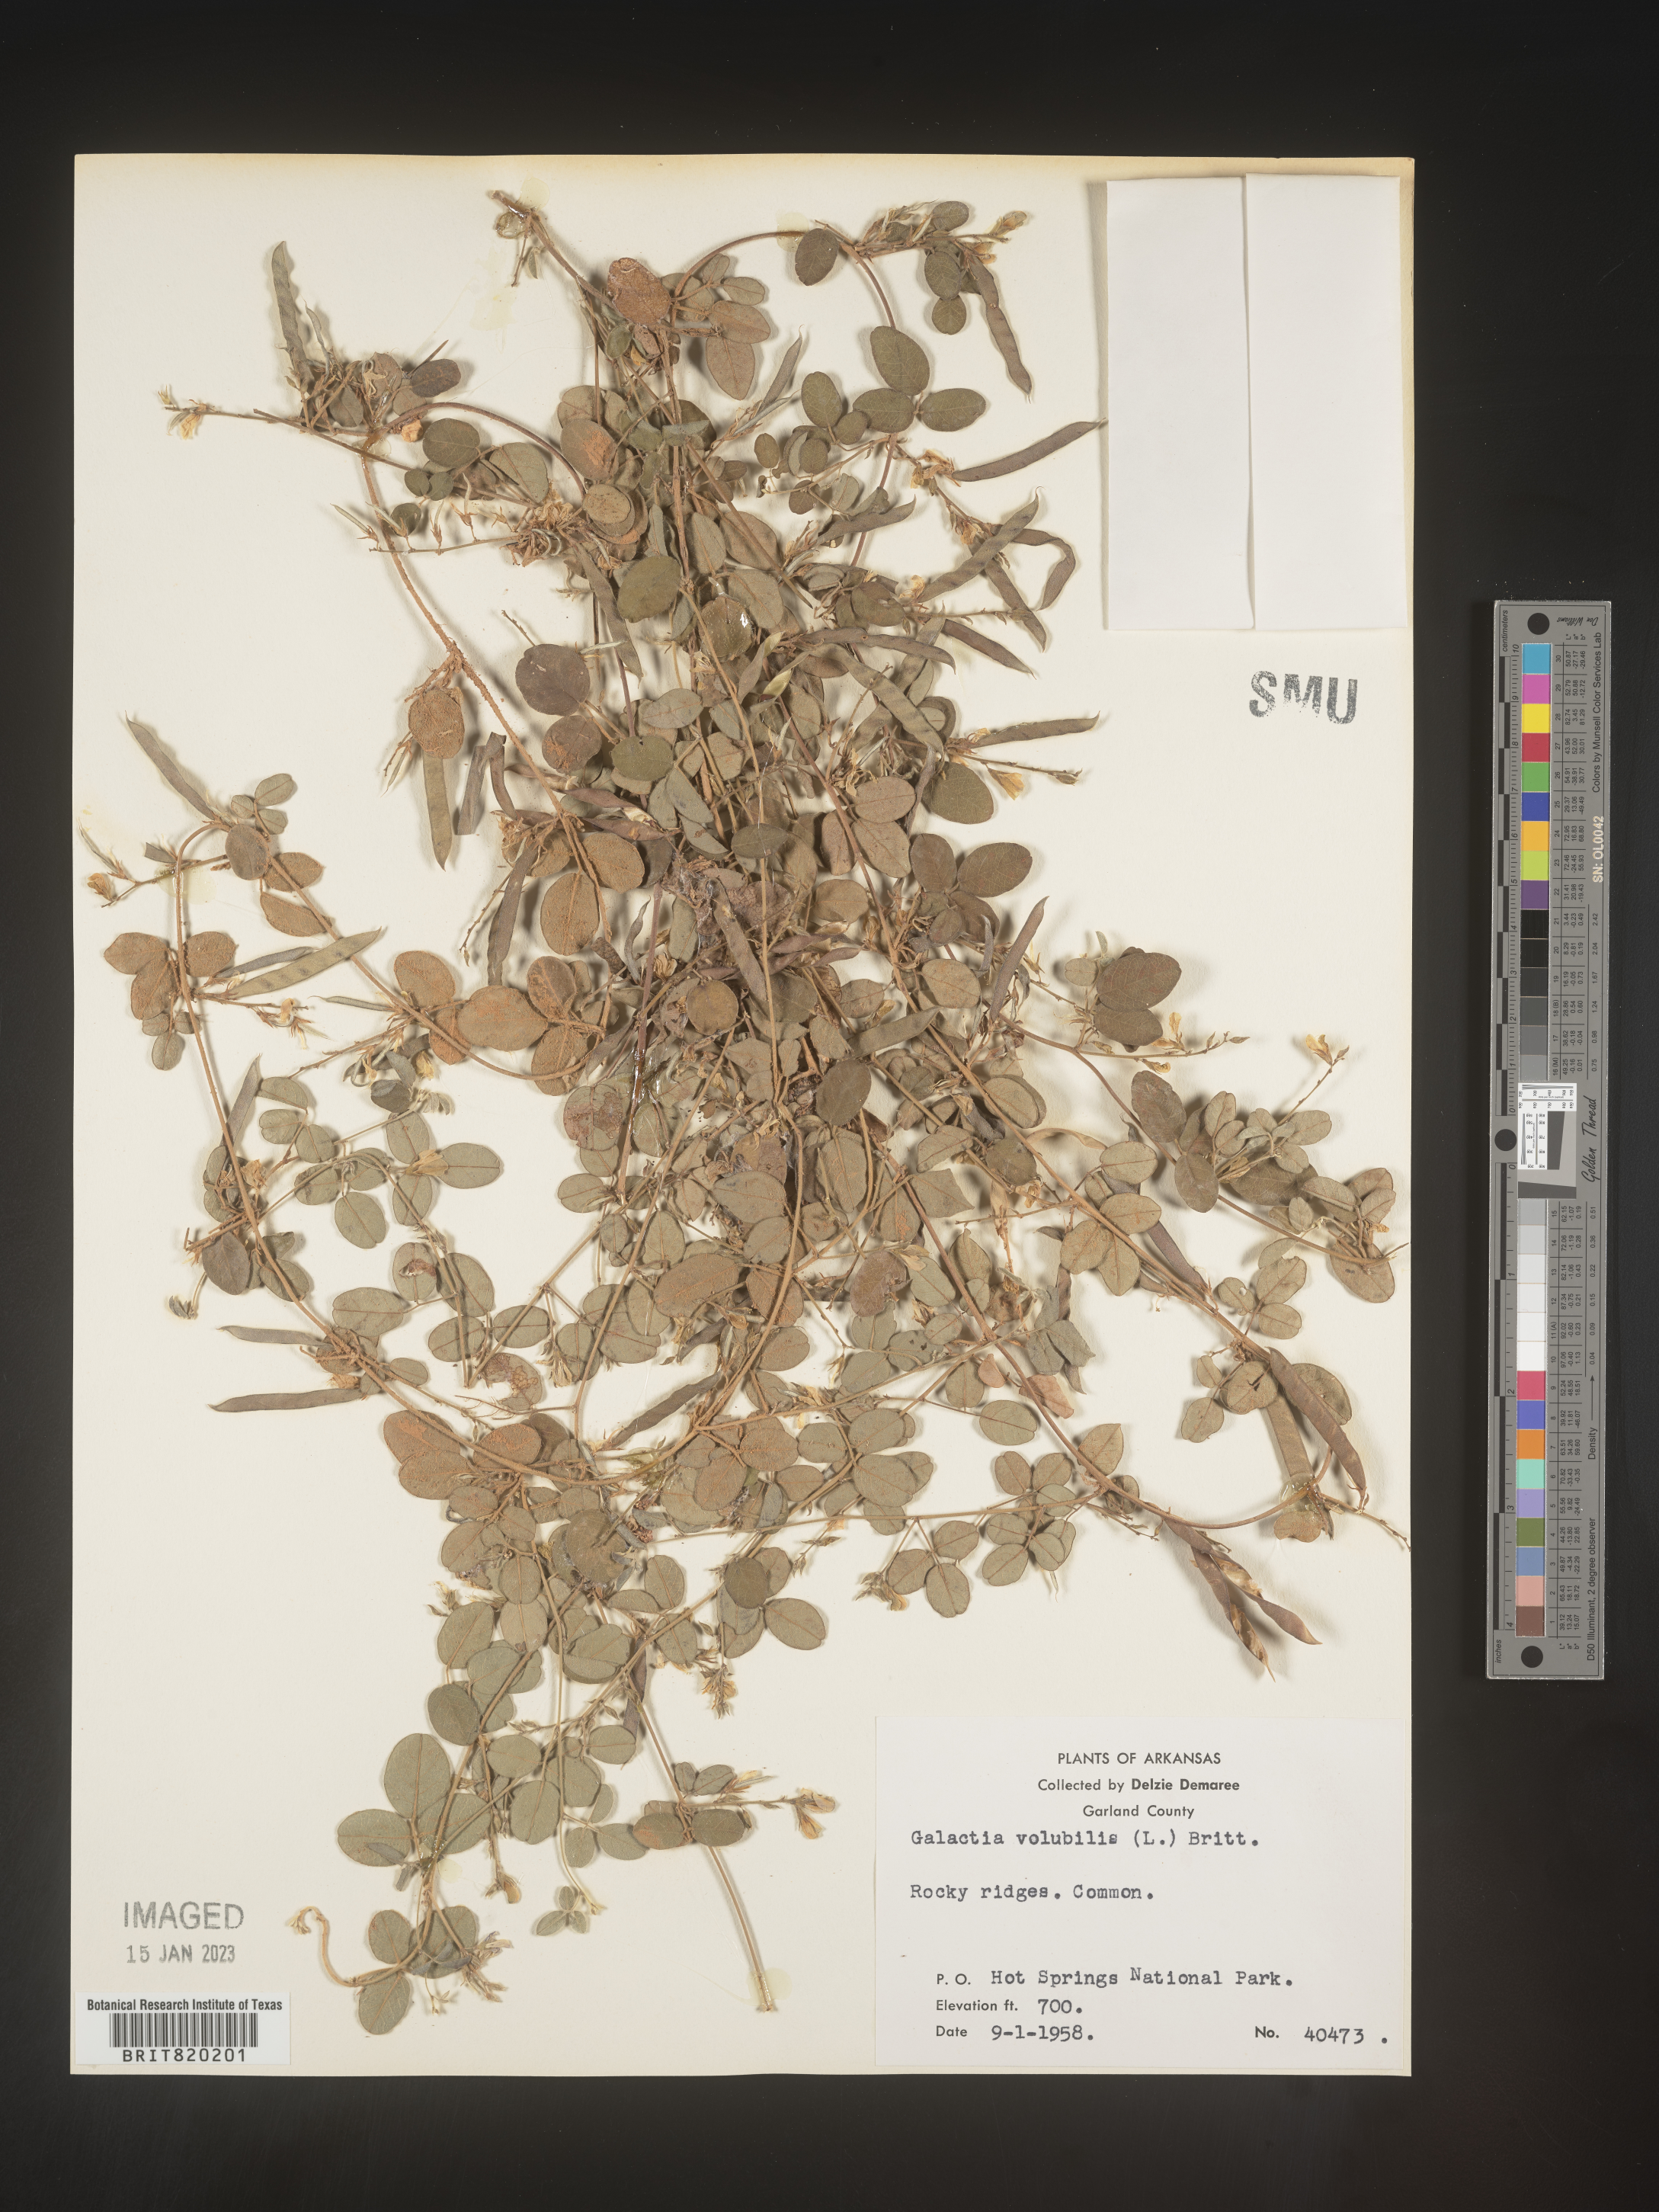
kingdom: Plantae
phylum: Tracheophyta
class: Magnoliopsida
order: Fabales
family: Fabaceae
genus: Galactia
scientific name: Galactia volubilis
